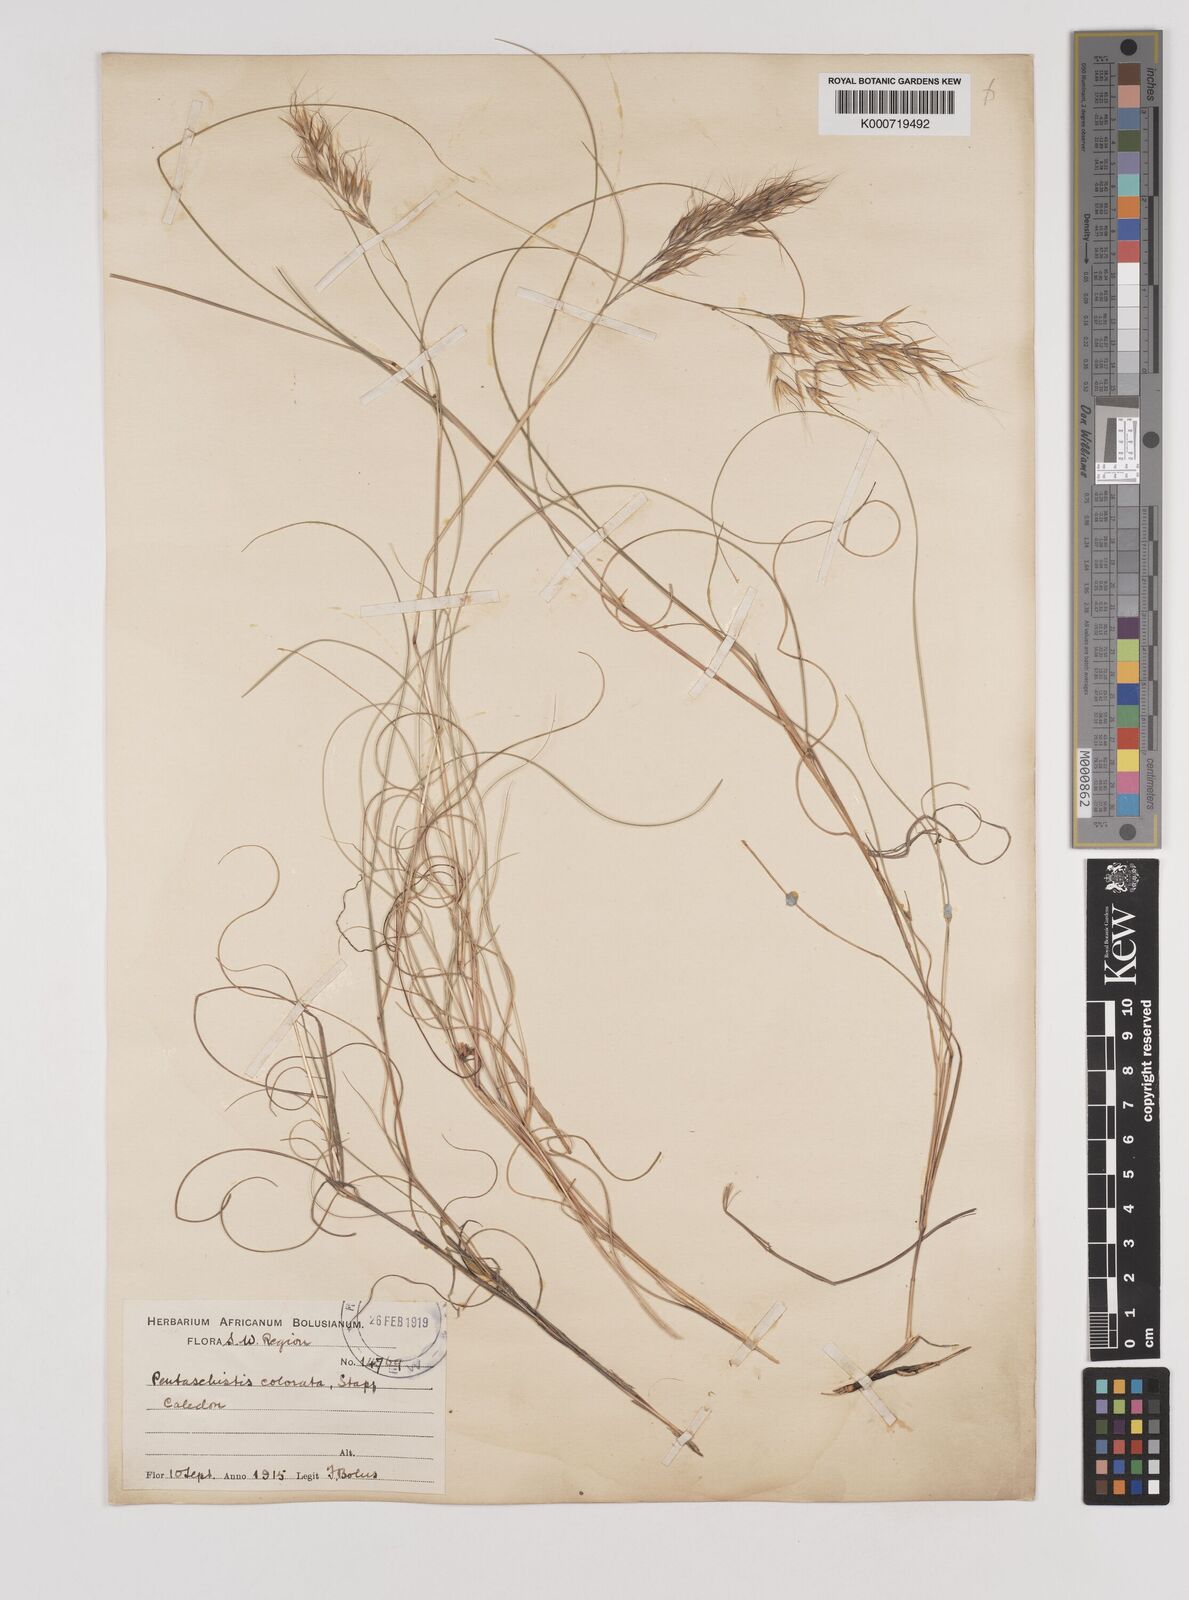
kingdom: Plantae
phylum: Tracheophyta
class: Liliopsida
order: Poales
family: Poaceae
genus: Pentameris
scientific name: Pentameris colorata
